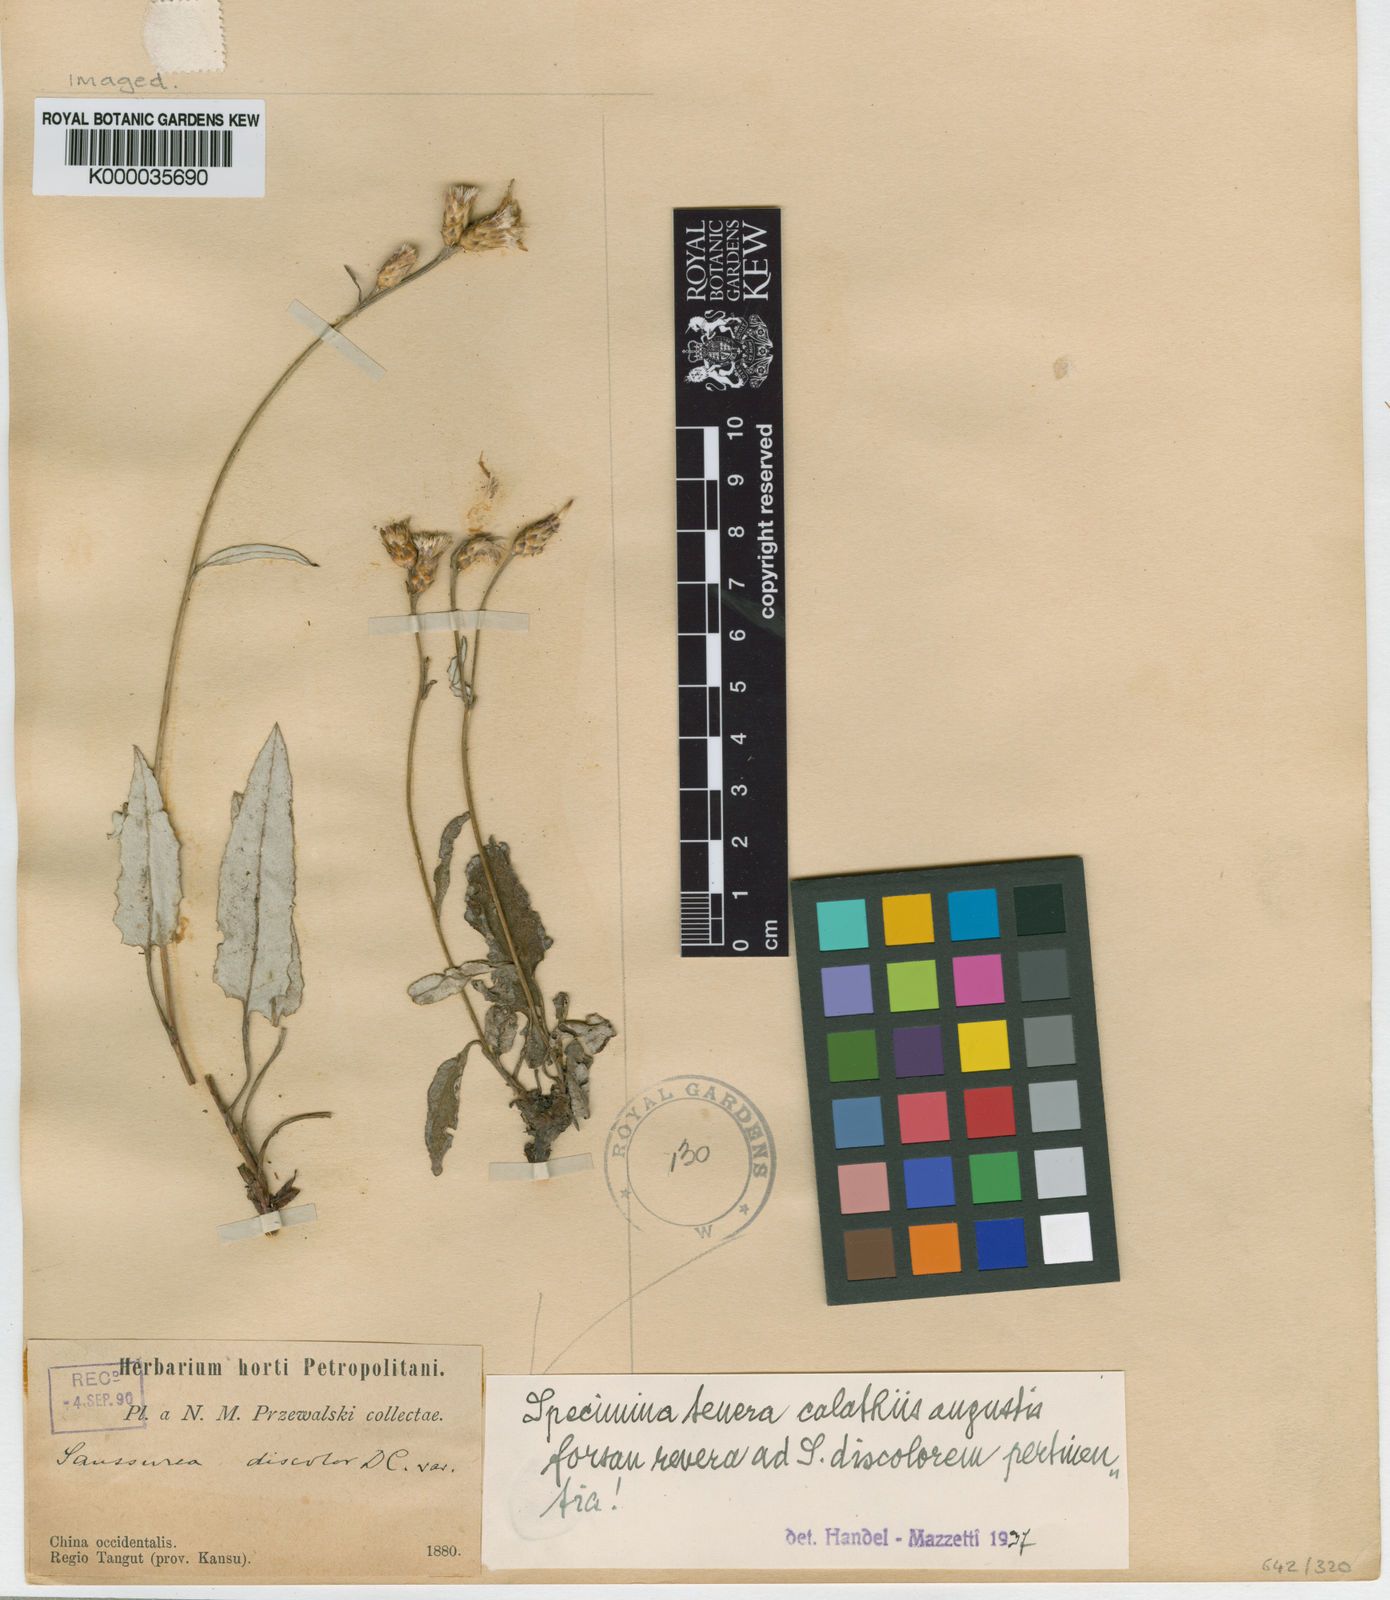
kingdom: Plantae
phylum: Tracheophyta
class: Magnoliopsida
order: Asterales
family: Asteraceae
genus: Saussurea
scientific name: Saussurea discolor
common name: Heart-leaved saussurea
